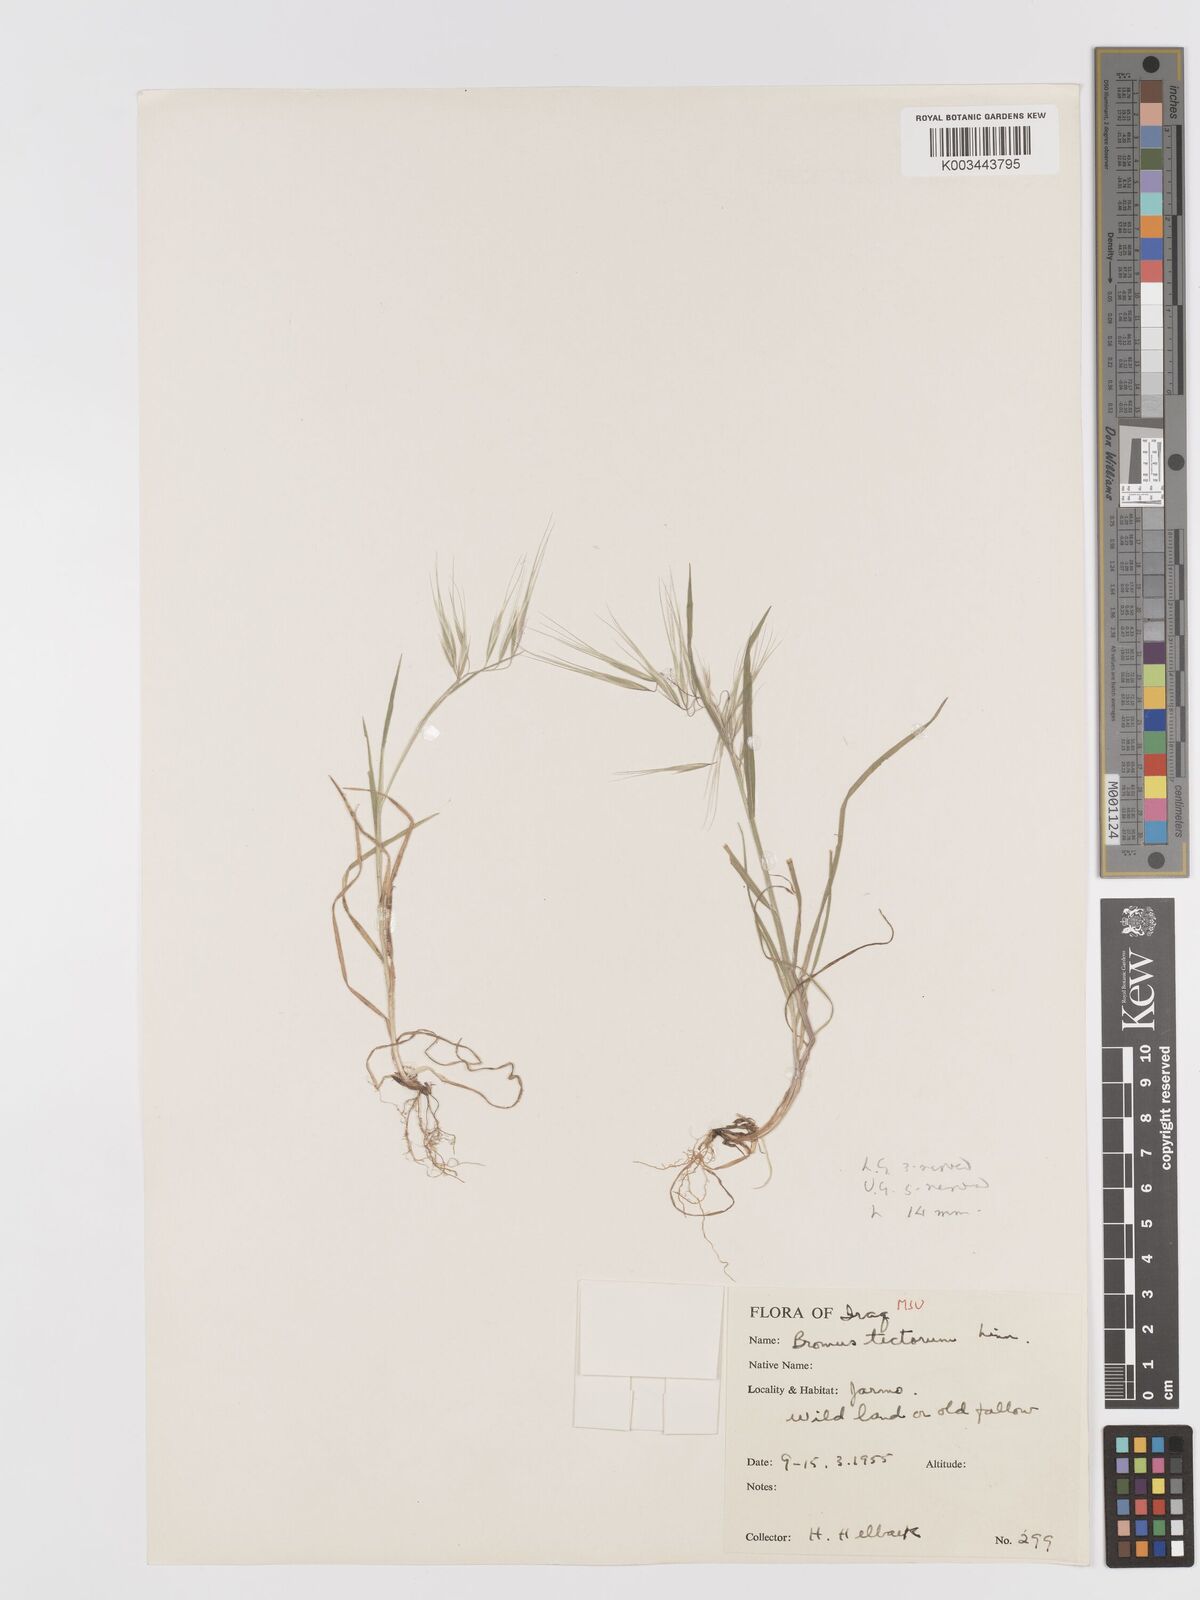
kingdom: Plantae
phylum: Tracheophyta
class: Liliopsida
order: Poales
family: Poaceae
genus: Bromus
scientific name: Bromus tectorum
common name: Cheatgrass
